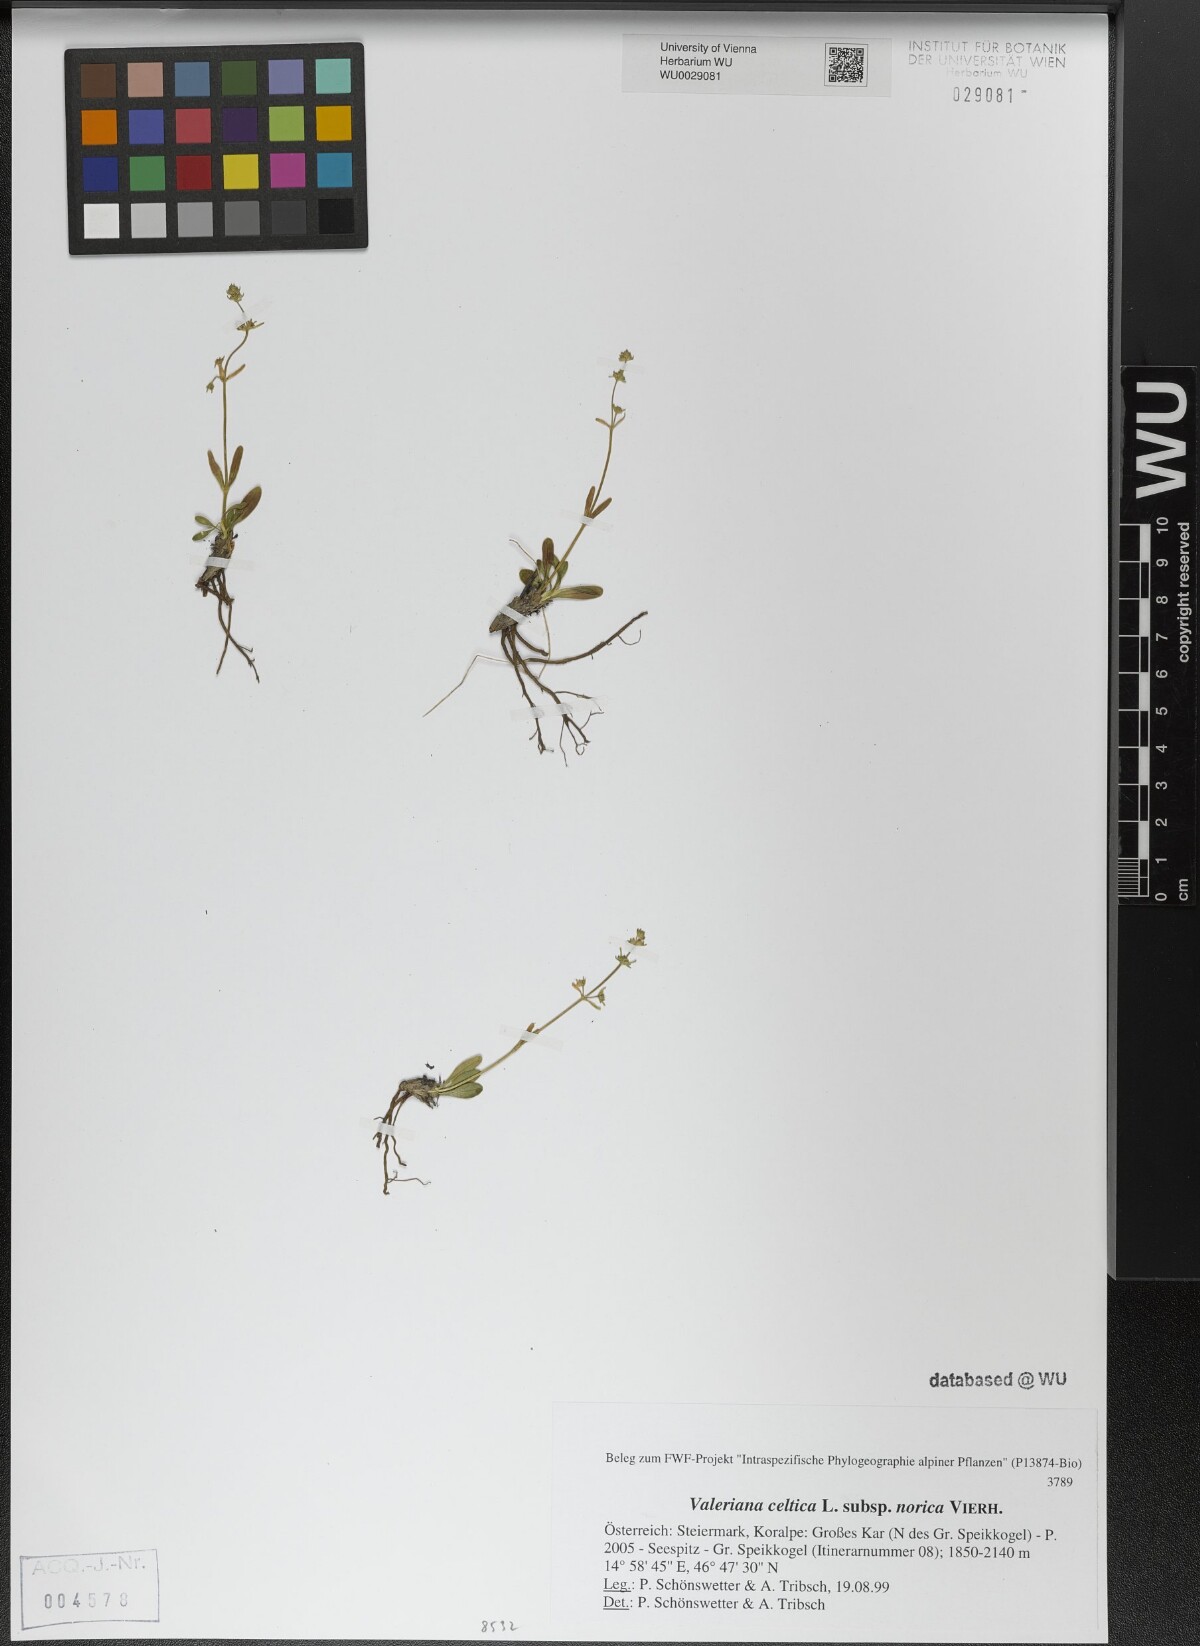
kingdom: Plantae
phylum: Tracheophyta
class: Magnoliopsida
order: Dipsacales
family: Caprifoliaceae
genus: Valeriana
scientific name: Valeriana celtica
